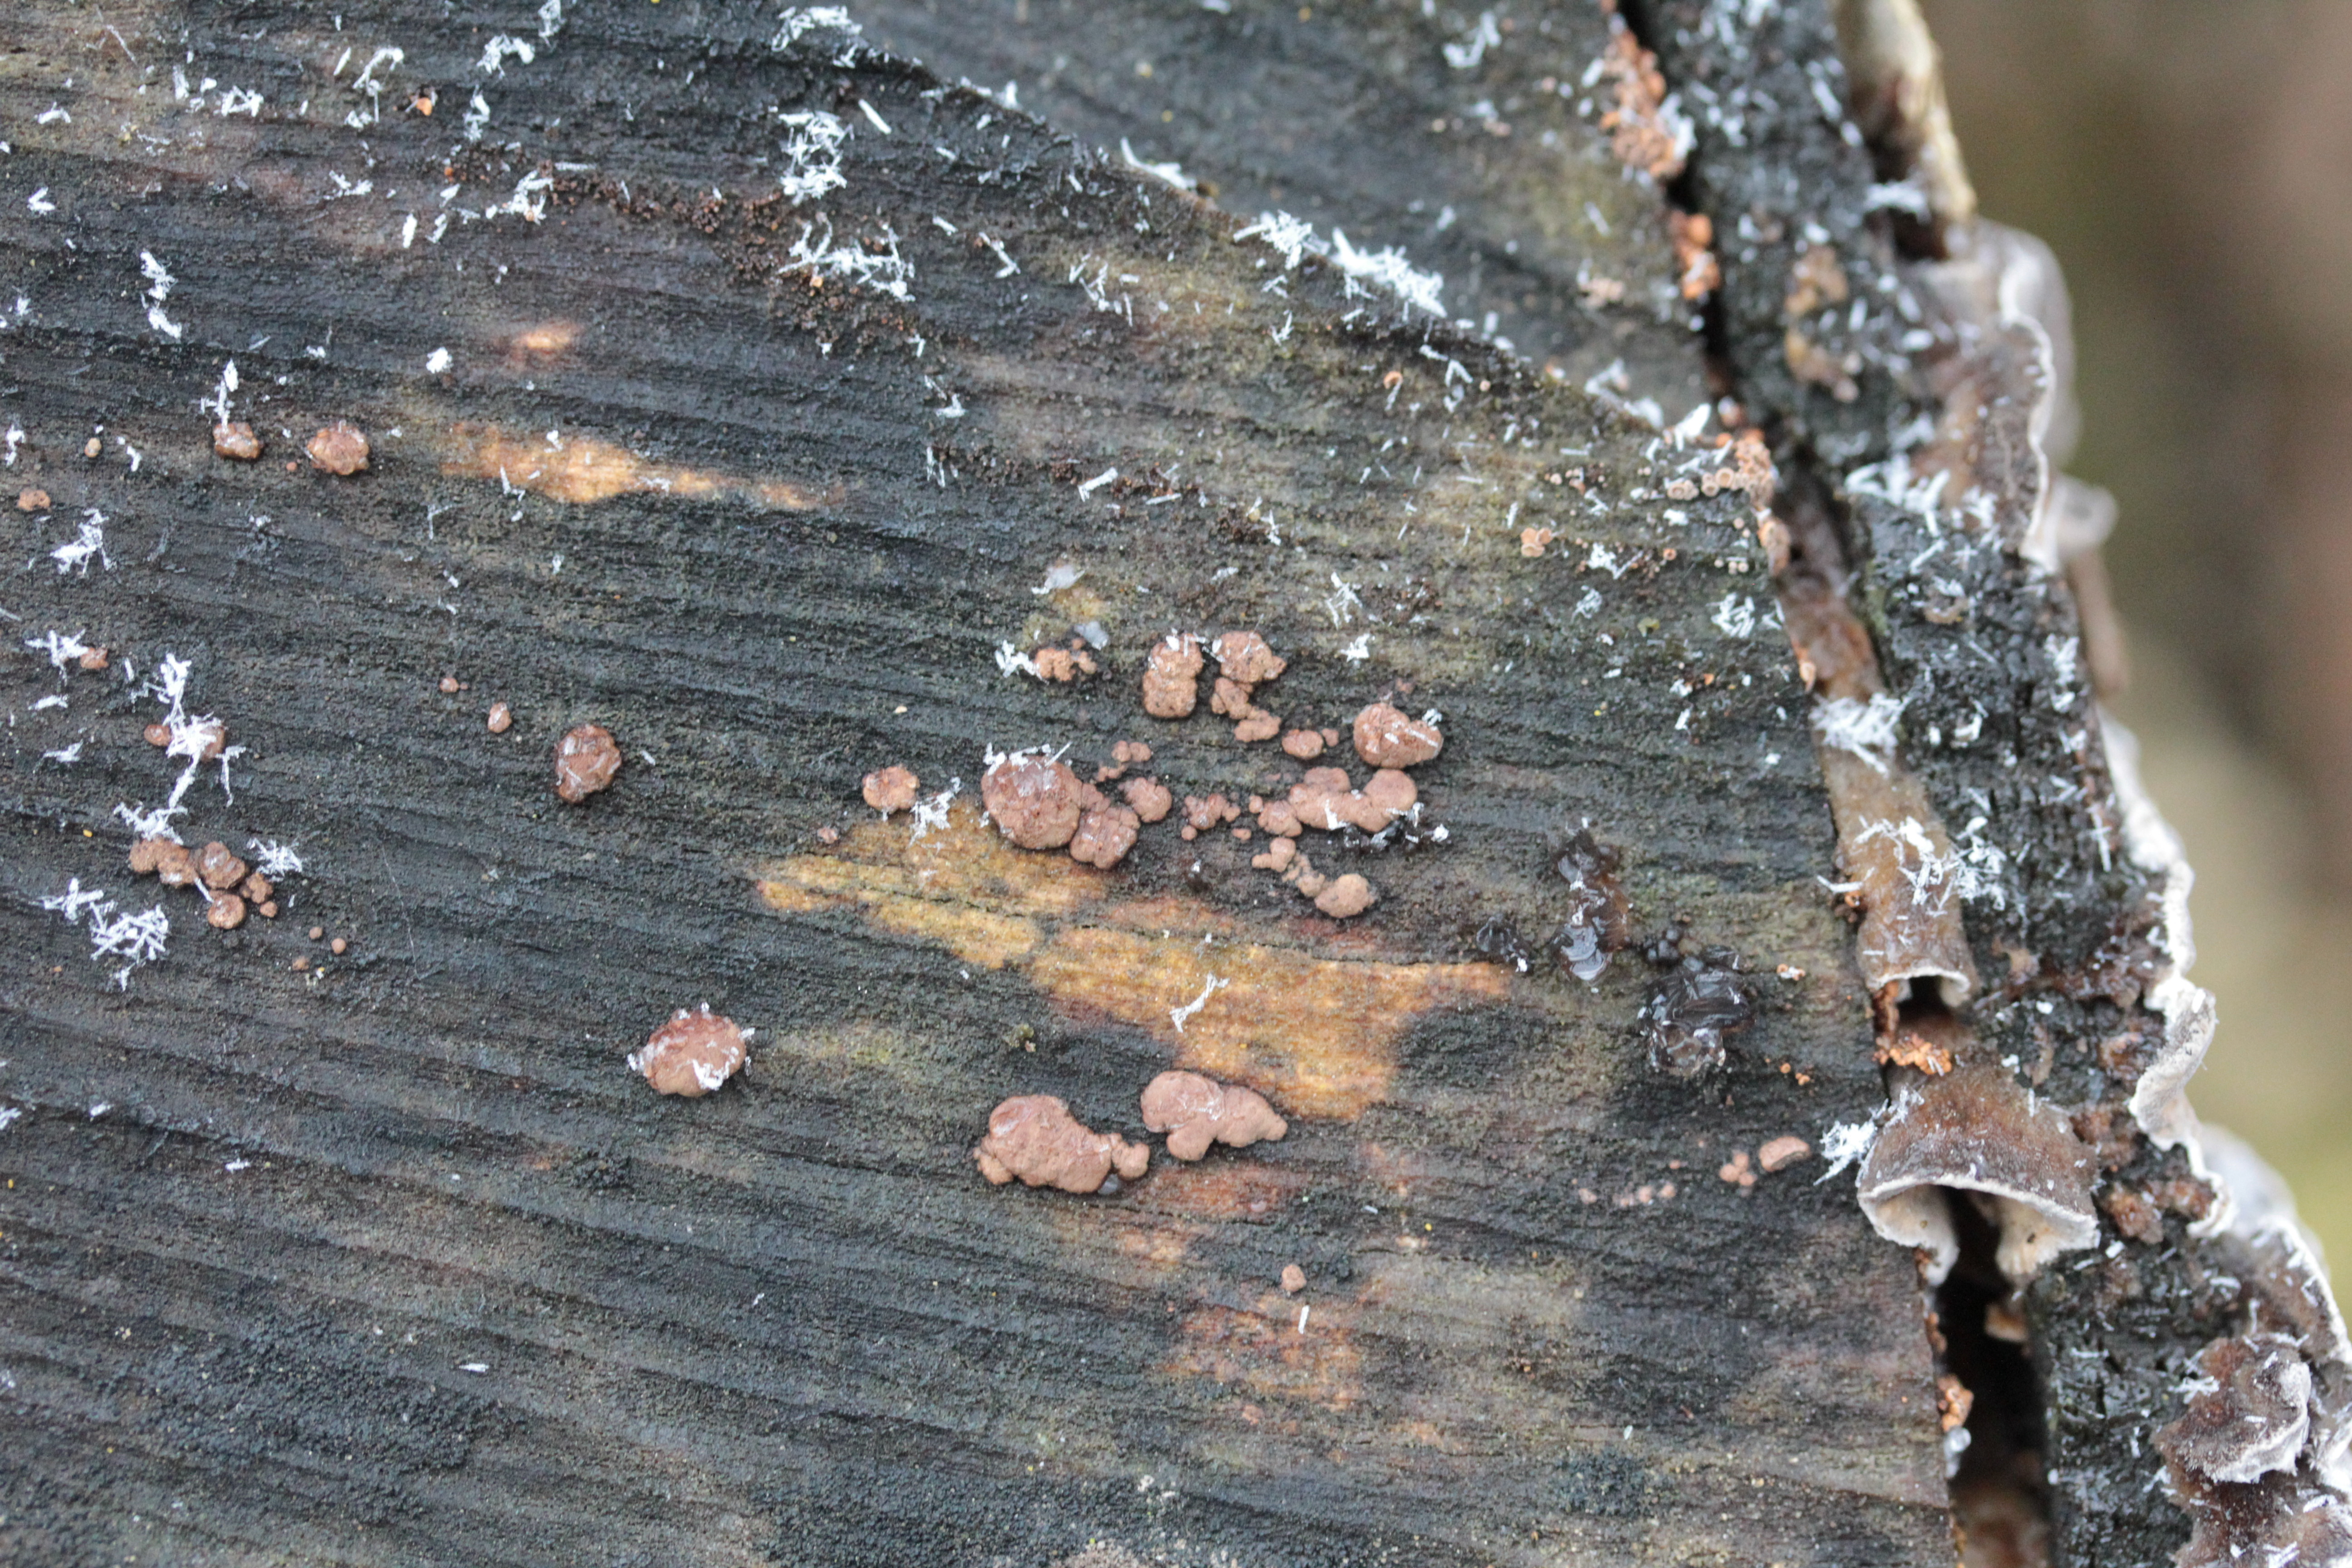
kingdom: Fungi
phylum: Ascomycota
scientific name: Ascomycota
